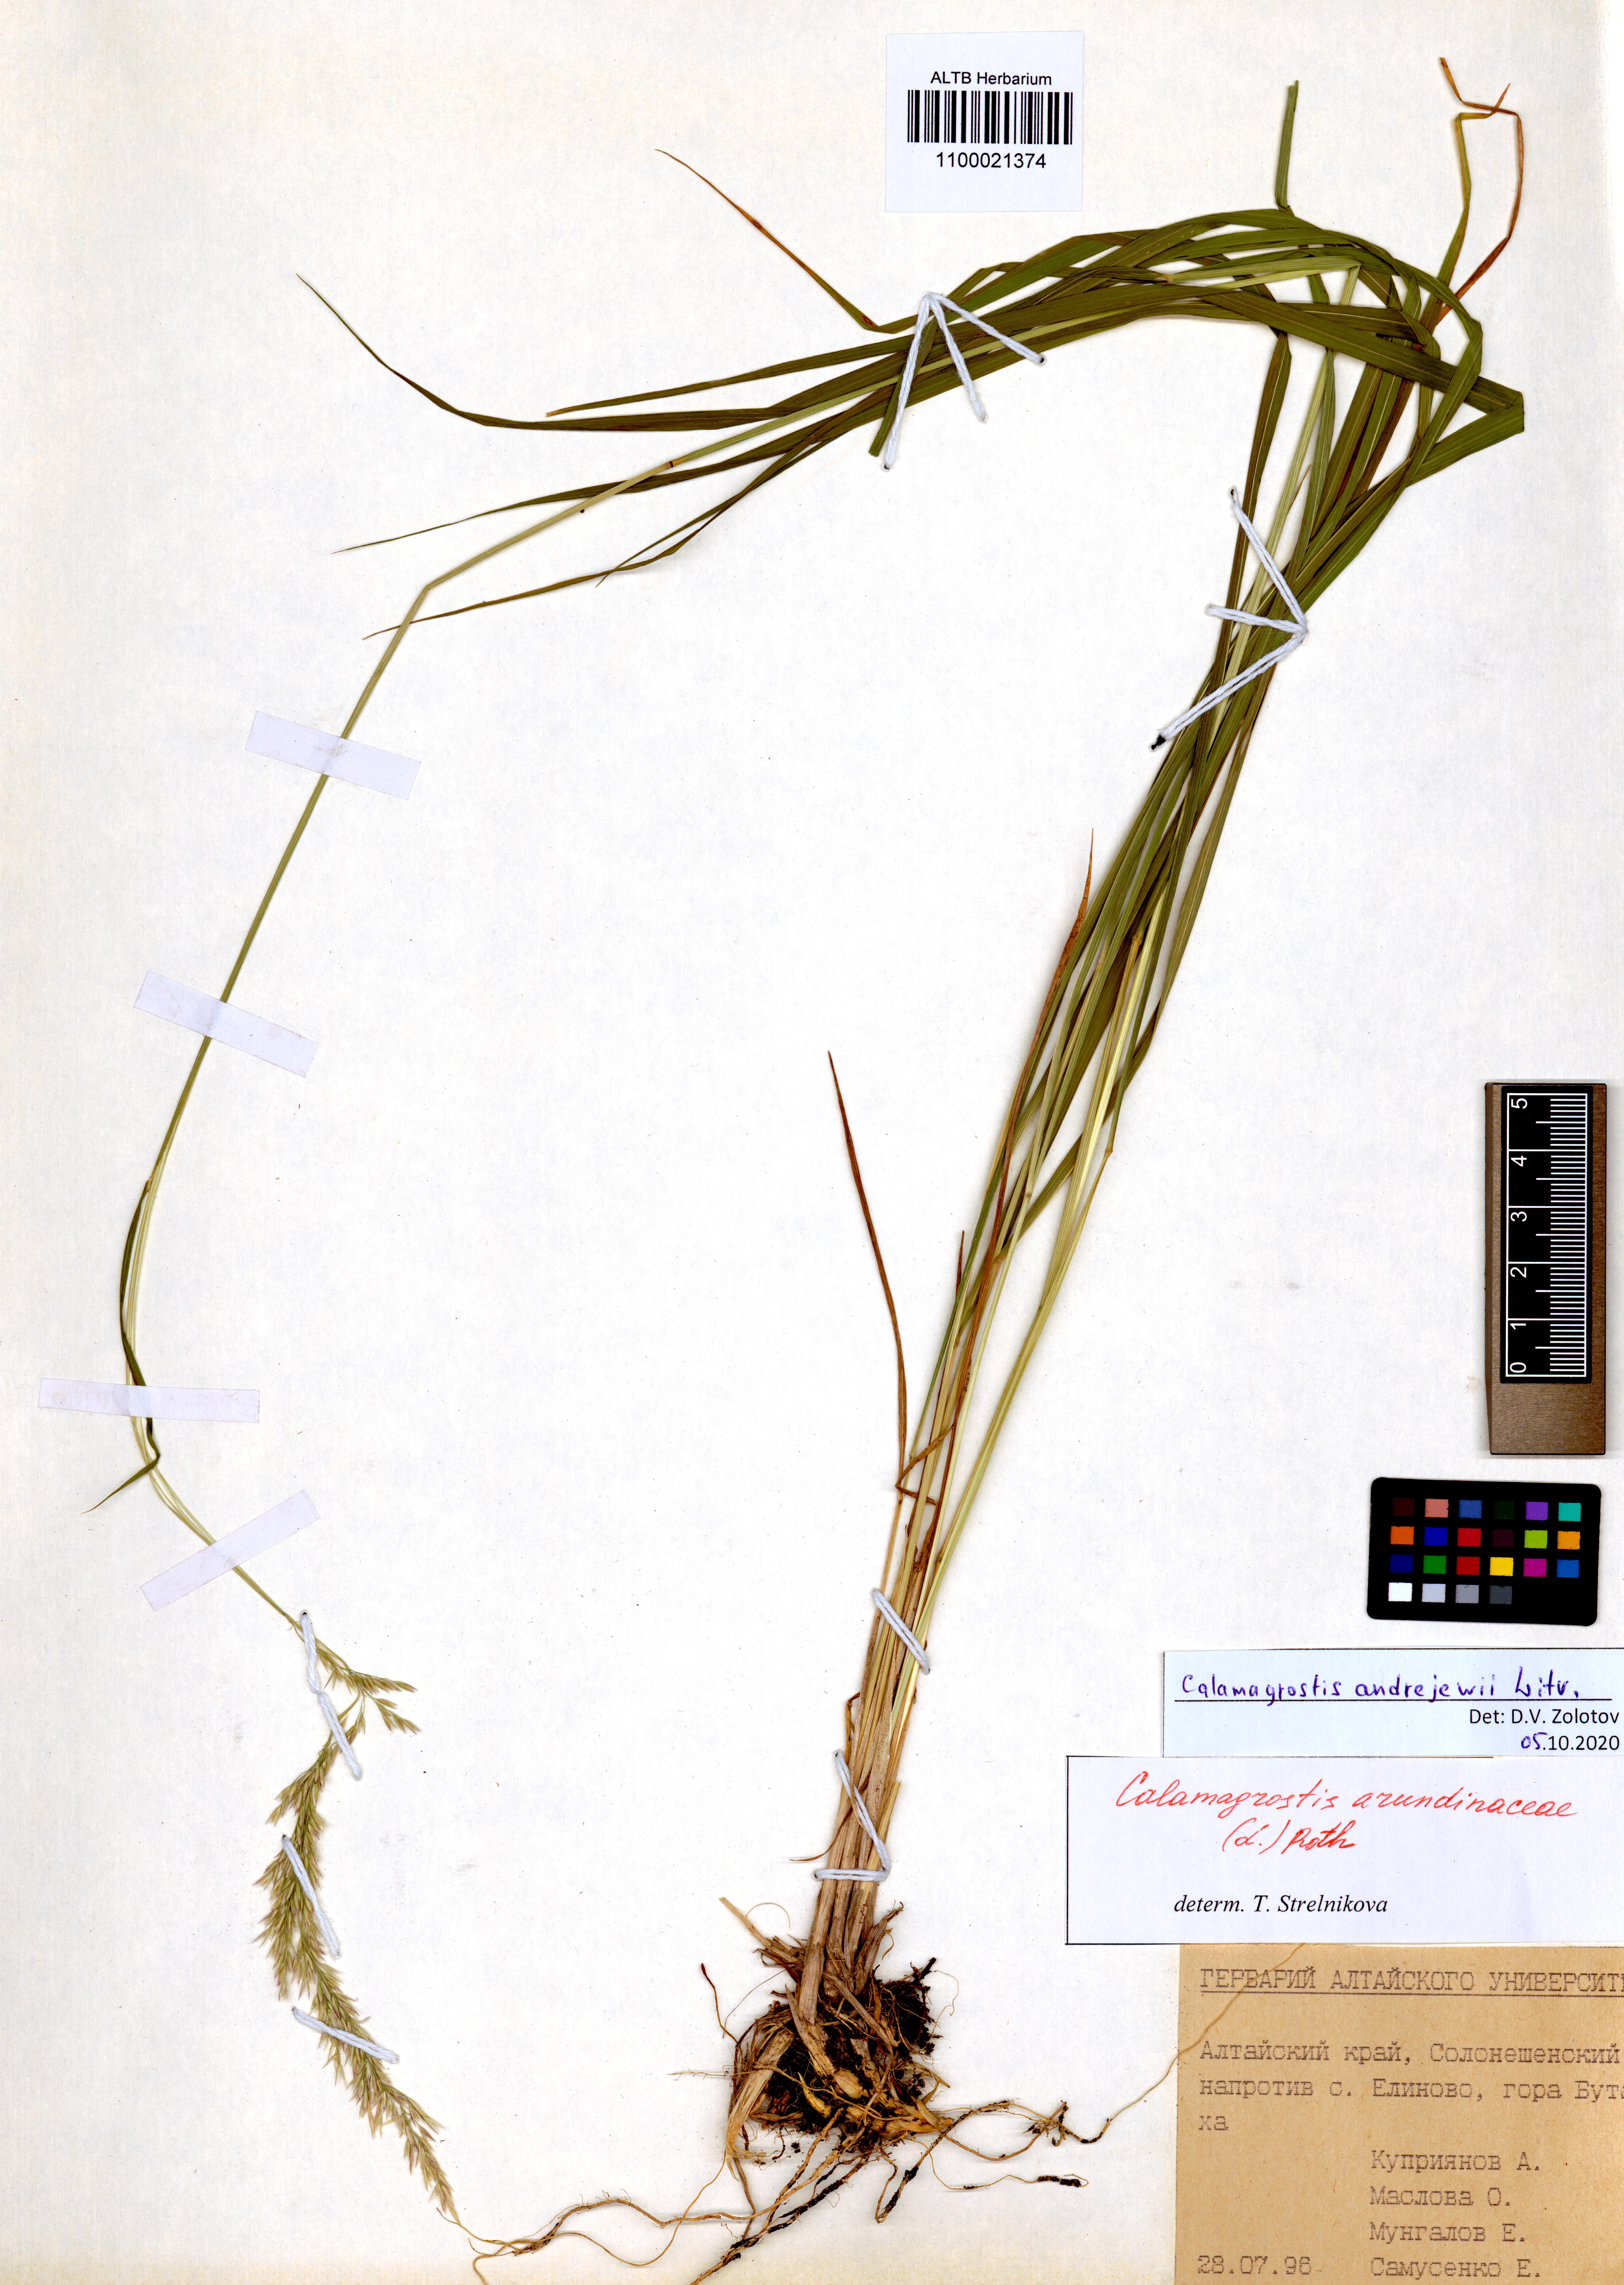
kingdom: Plantae
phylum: Tracheophyta
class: Liliopsida
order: Poales
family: Poaceae
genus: Calamagrostis
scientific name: Calamagrostis andrejewii
